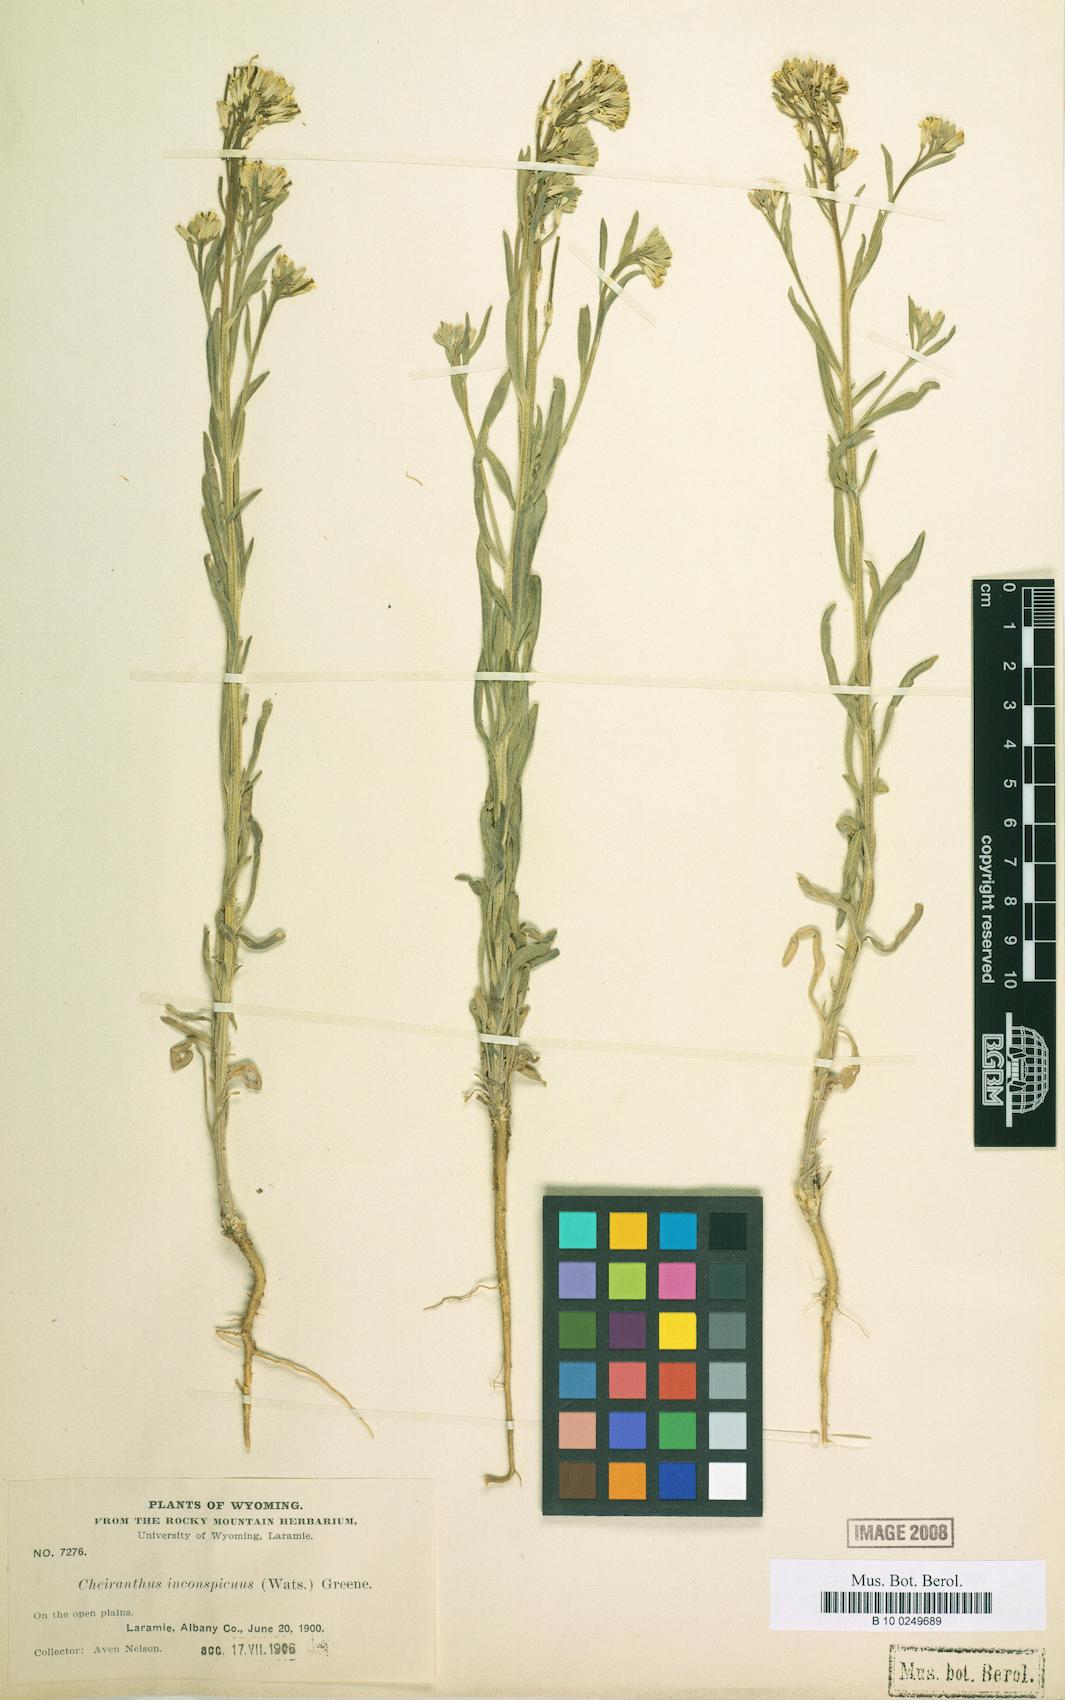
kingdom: Plantae
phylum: Tracheophyta
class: Magnoliopsida
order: Brassicales
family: Brassicaceae
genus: Erysimum
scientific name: Erysimum inconspicuum
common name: Shy wallflower
